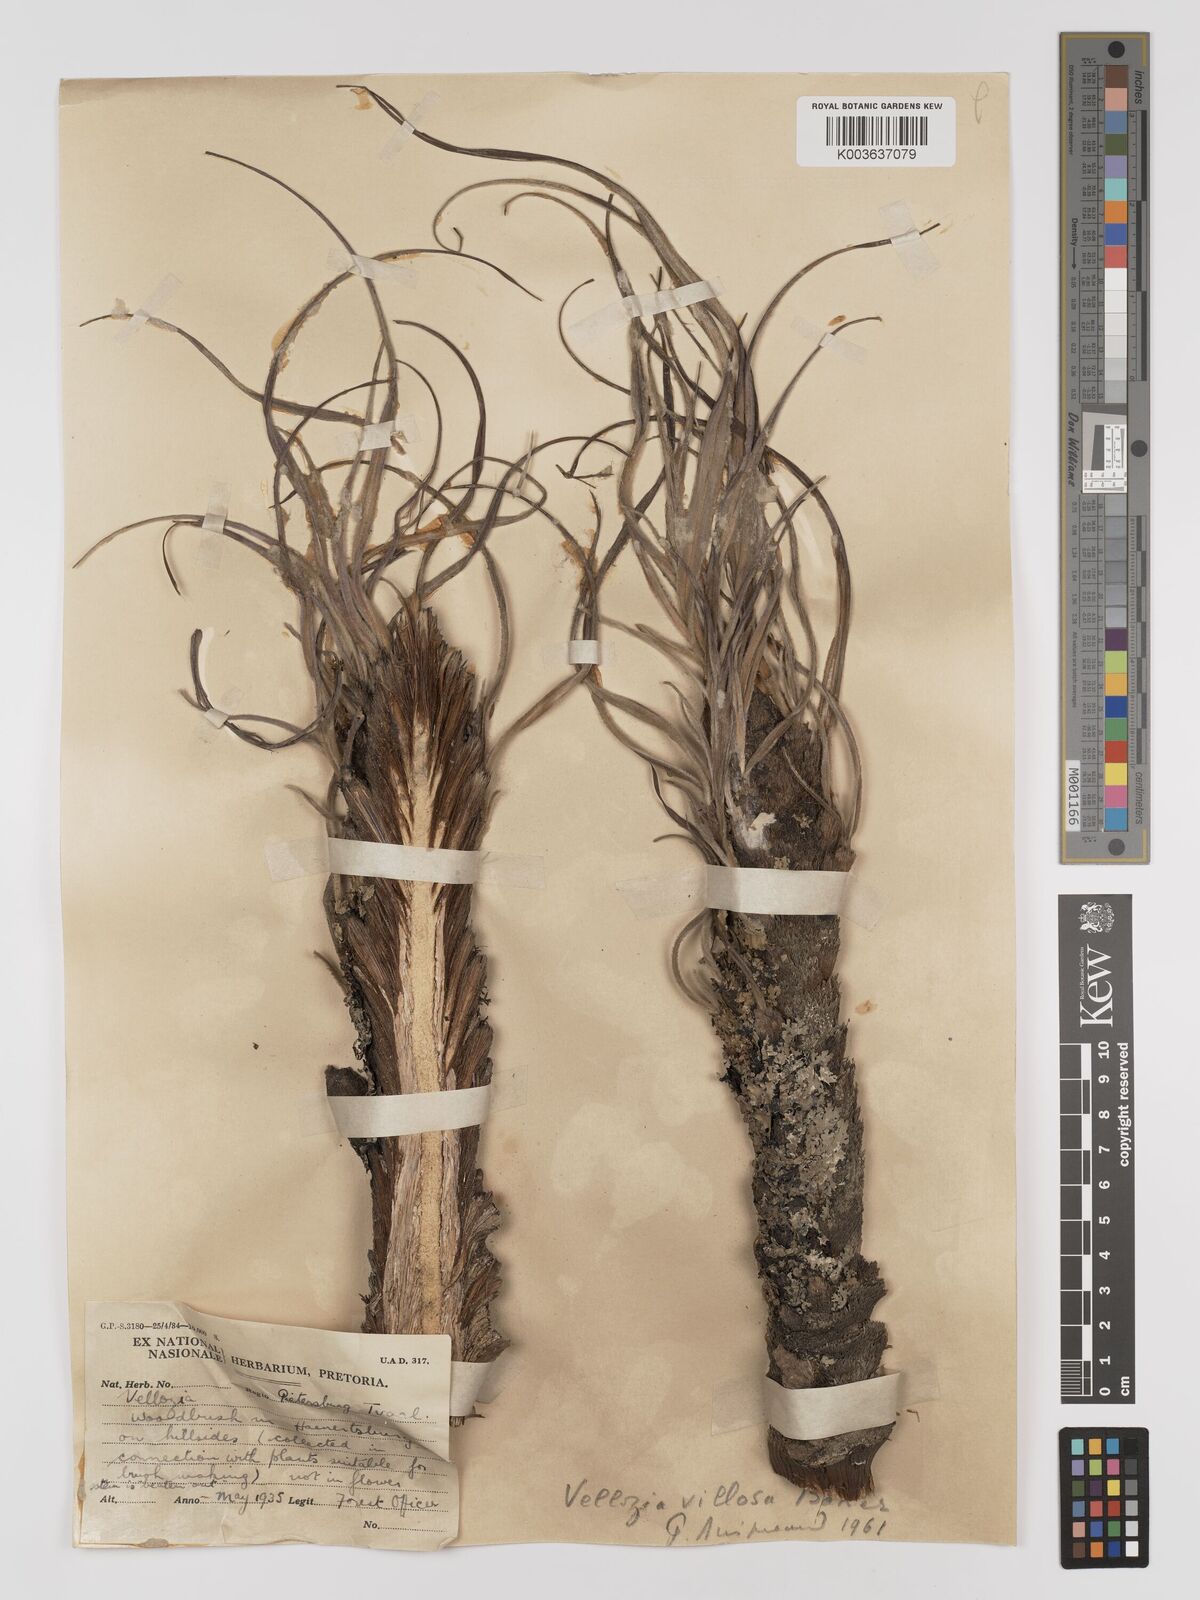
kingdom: Plantae
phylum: Tracheophyta
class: Liliopsida
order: Pandanales
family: Velloziaceae
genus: Xerophyta
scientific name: Xerophyta villosa
